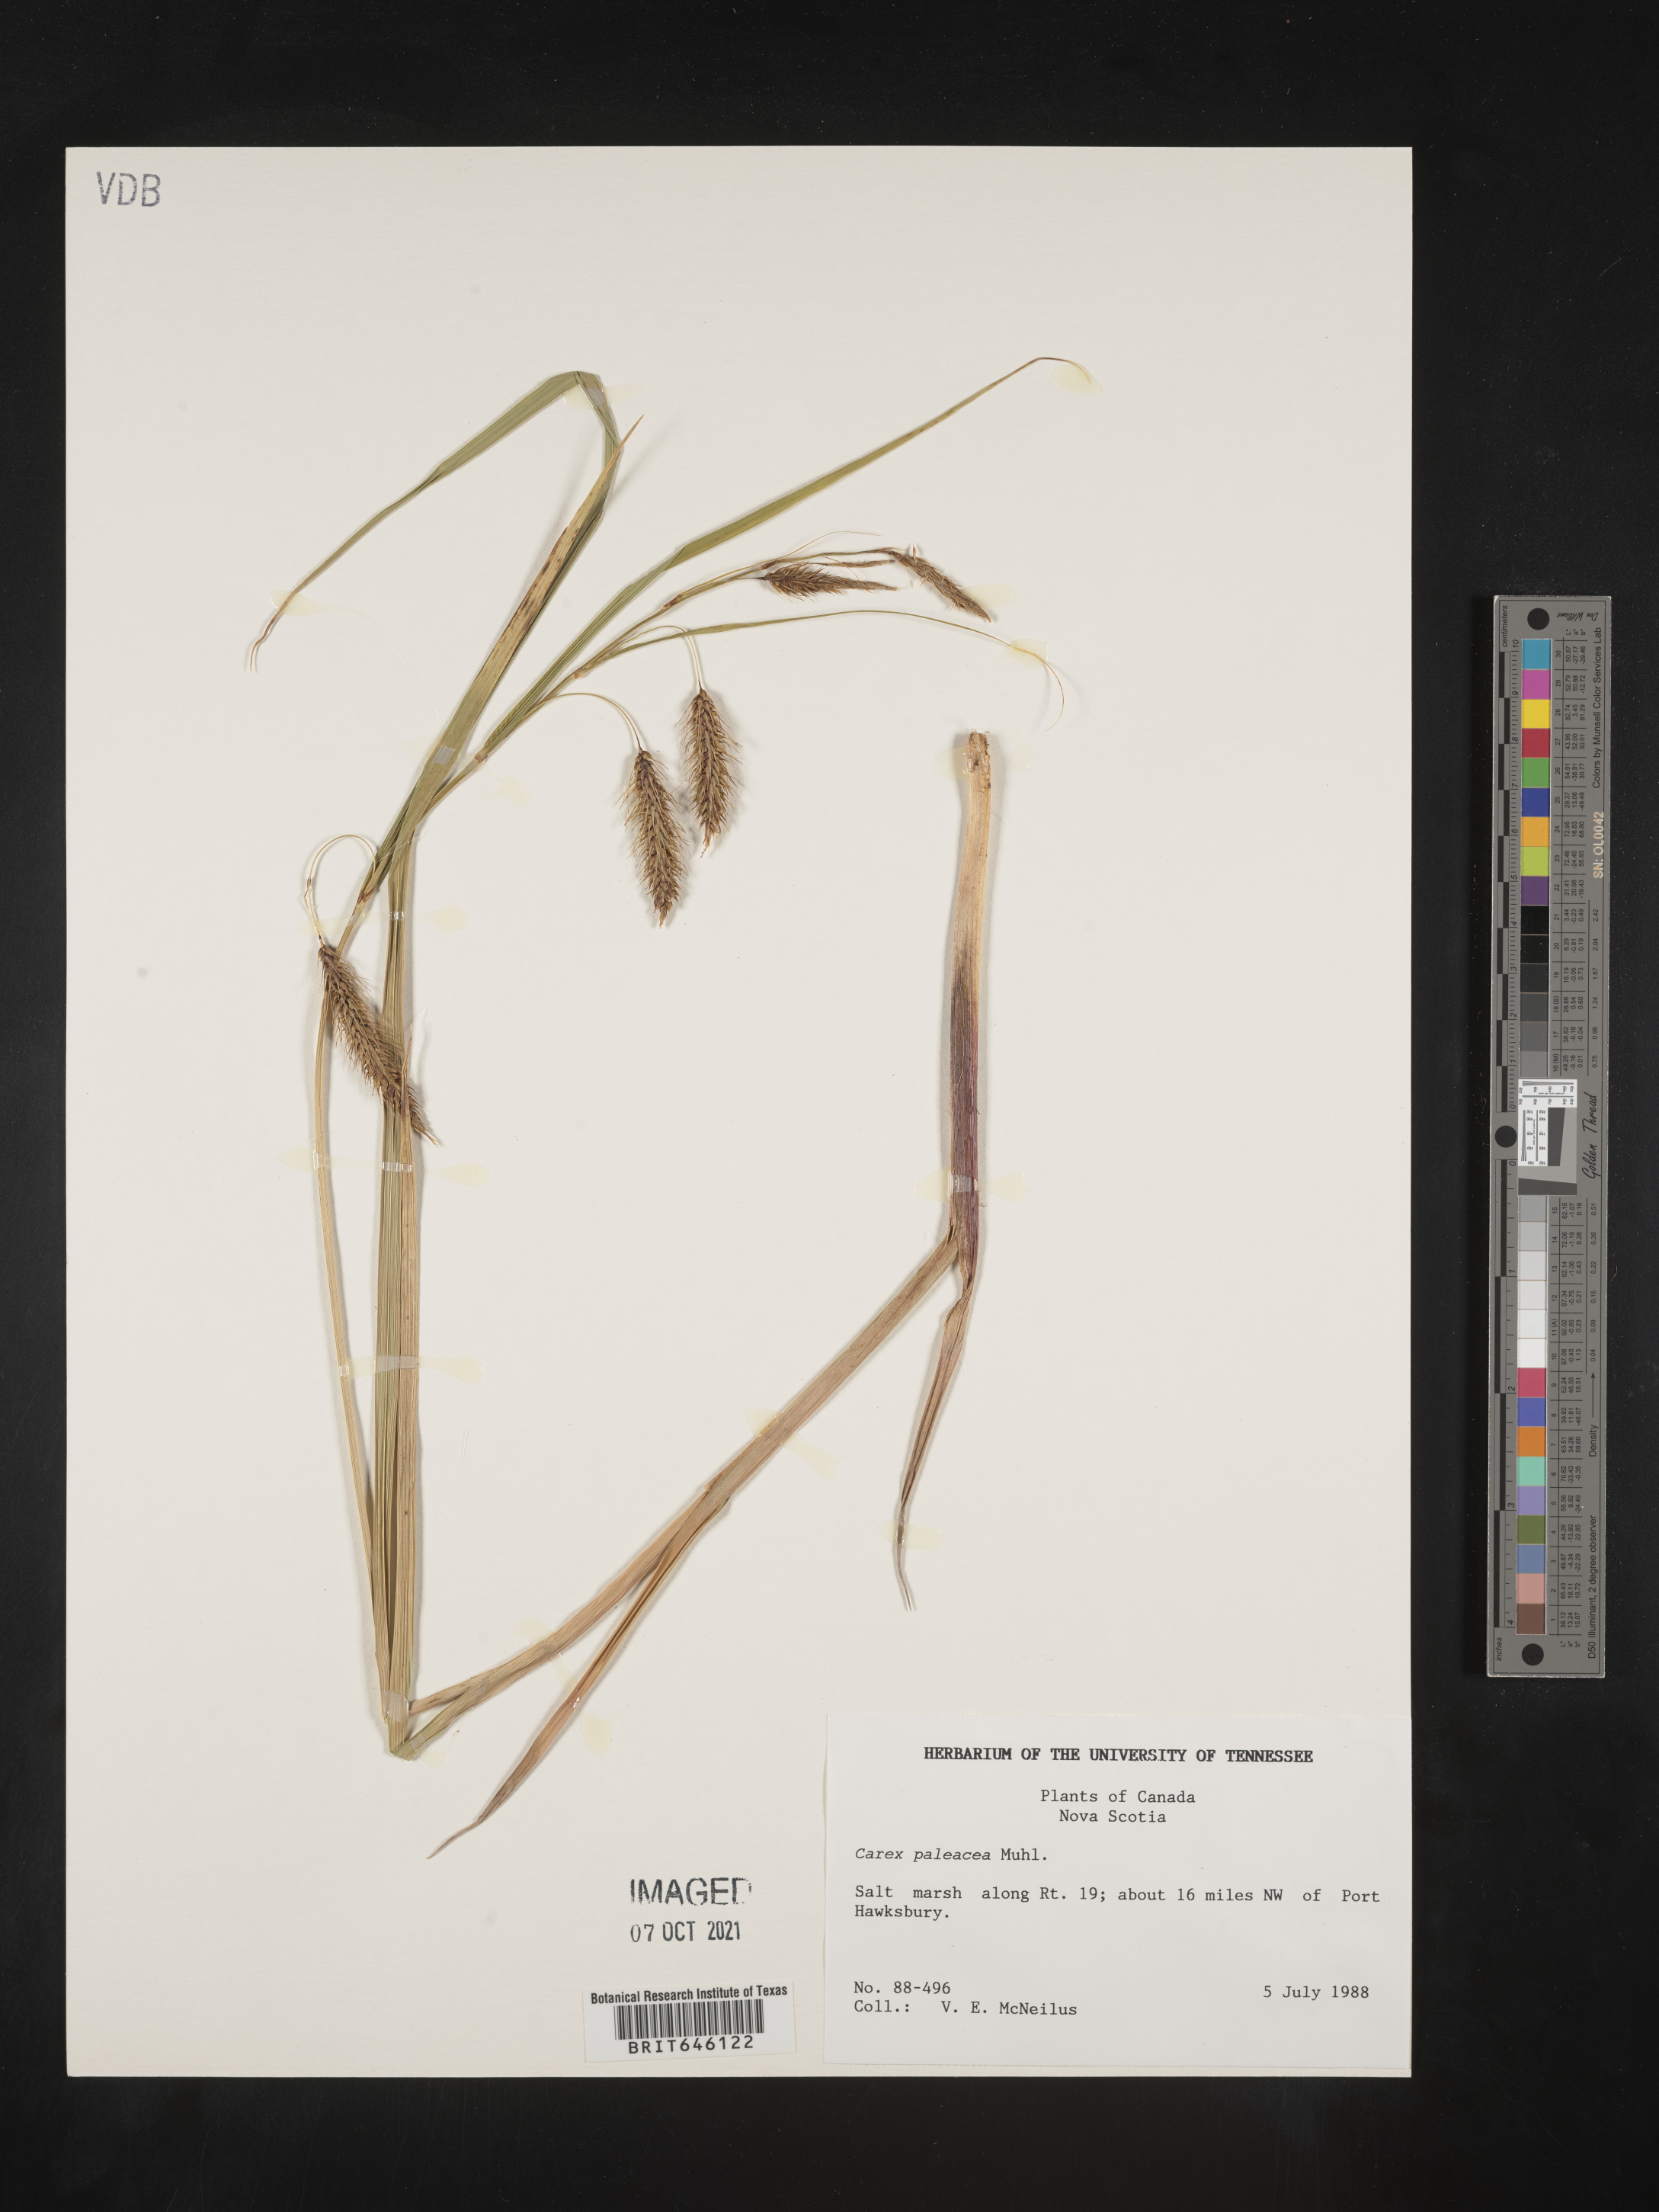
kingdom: Plantae
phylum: Tracheophyta
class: Liliopsida
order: Poales
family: Cyperaceae
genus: Carex
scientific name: Carex paleacea
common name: Chaffy sedge
